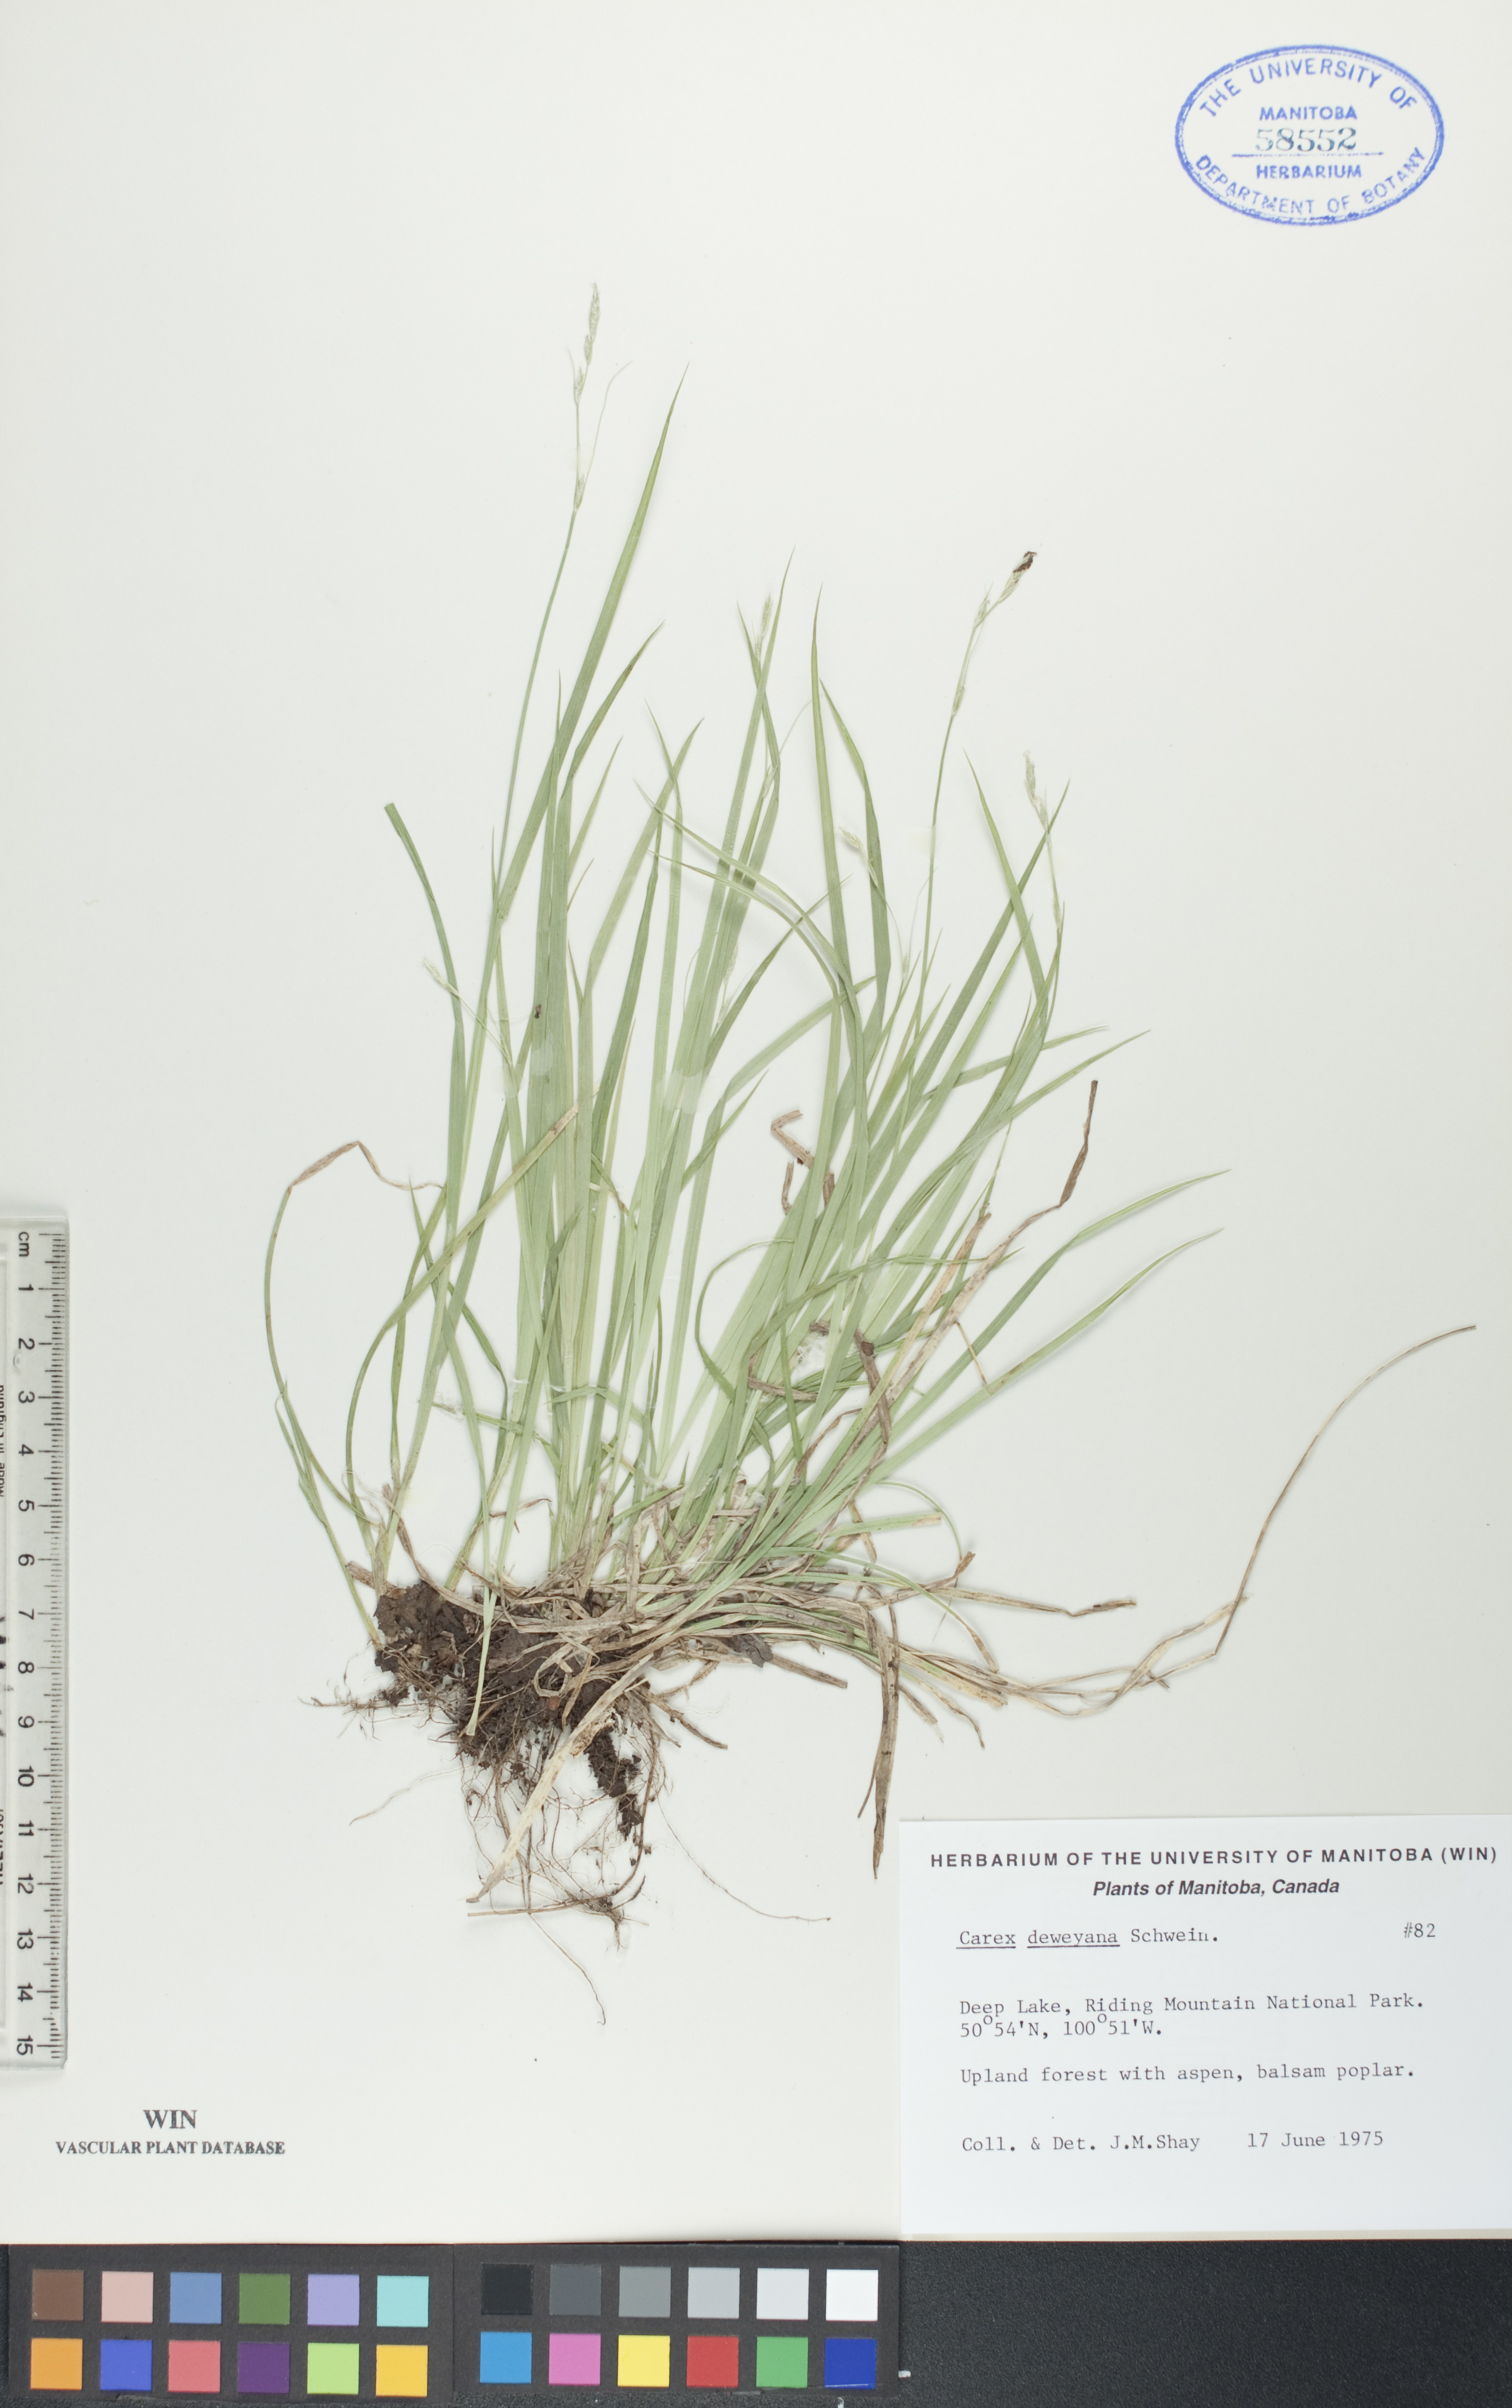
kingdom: Plantae
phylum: Tracheophyta
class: Liliopsida
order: Poales
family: Cyperaceae
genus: Carex
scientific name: Carex deweyana
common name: Dewey's sedge
